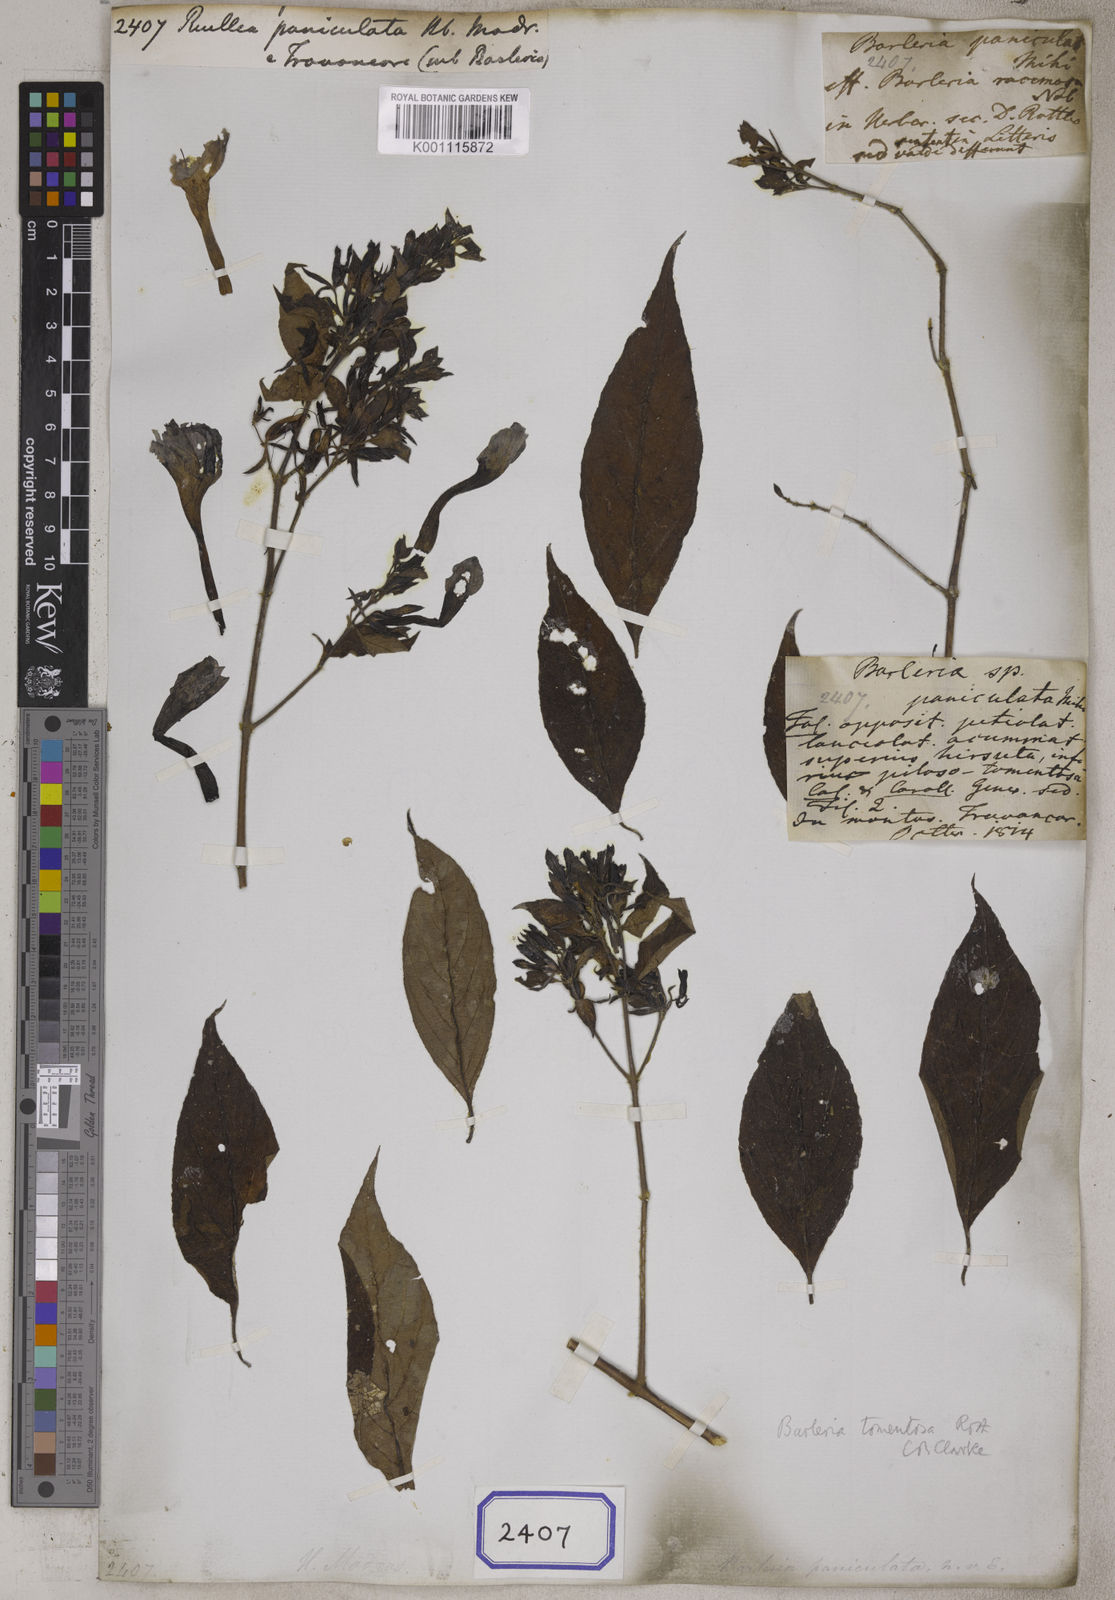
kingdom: Plantae
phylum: Tracheophyta
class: Magnoliopsida
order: Lamiales
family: Acanthaceae
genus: Ruellia
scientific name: Ruellia paniculata
